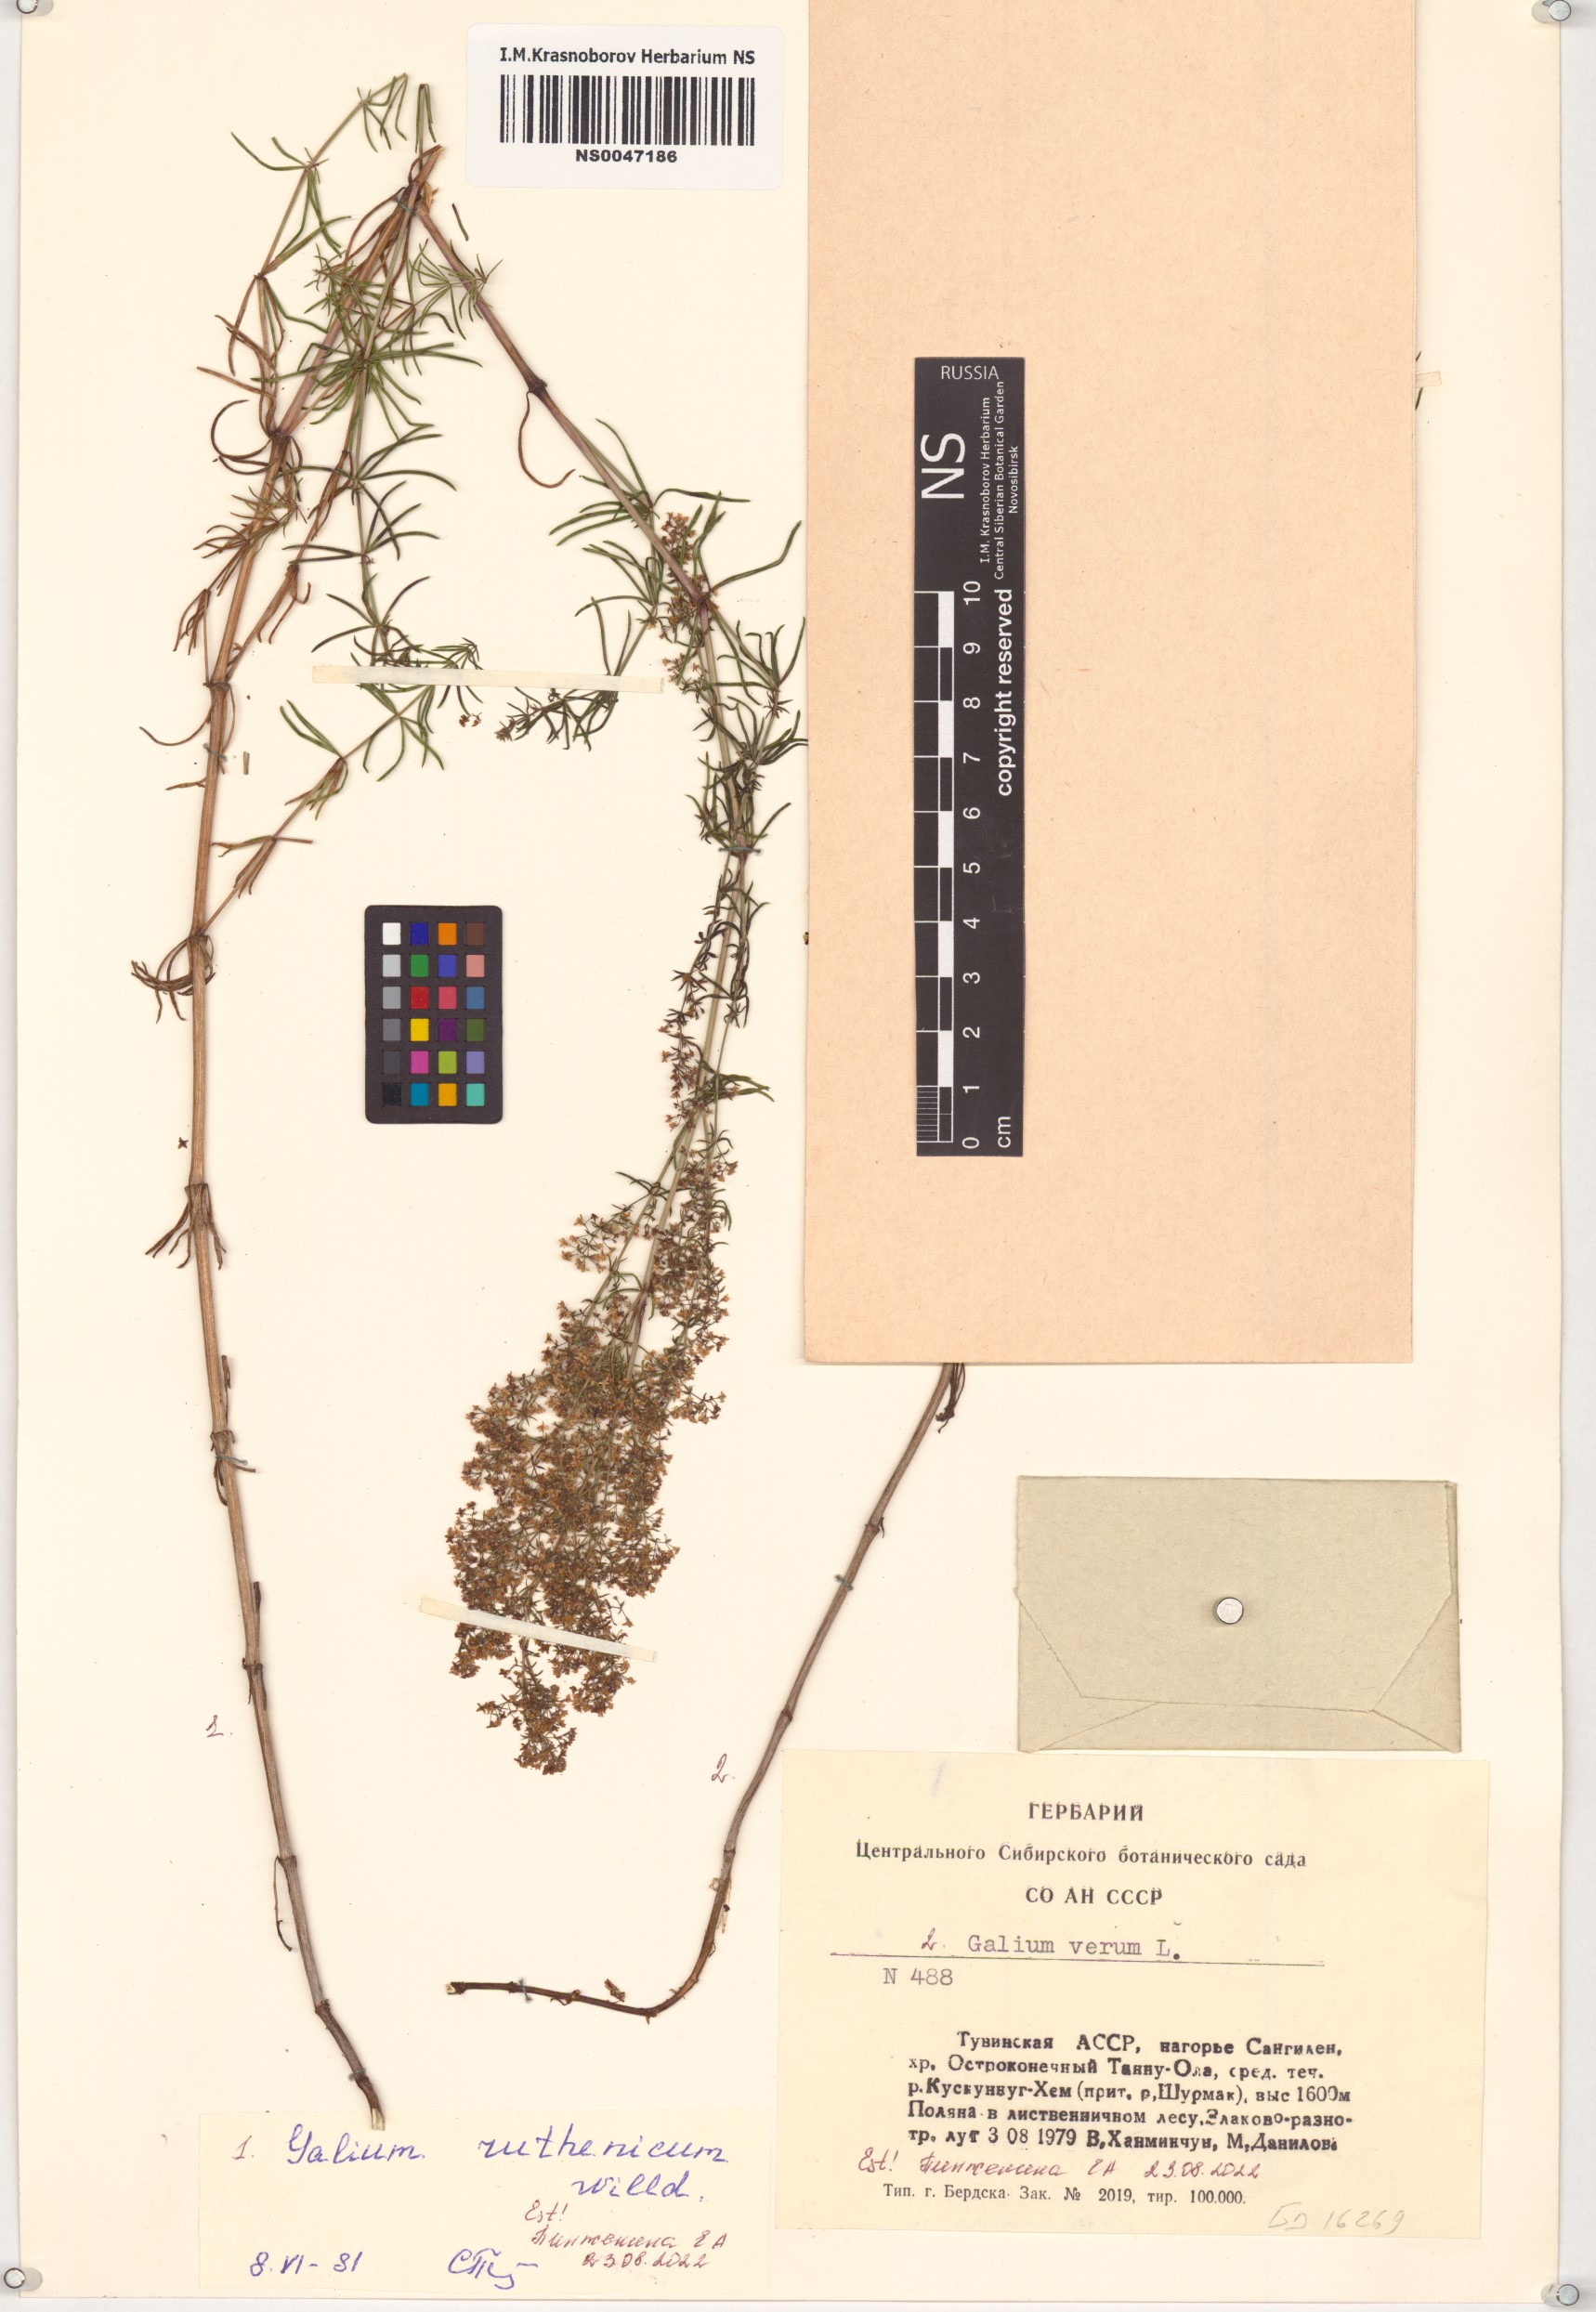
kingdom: Plantae
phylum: Tracheophyta
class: Magnoliopsida
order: Gentianales
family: Rubiaceae
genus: Galium
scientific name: Galium verum
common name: Lady's bedstraw
